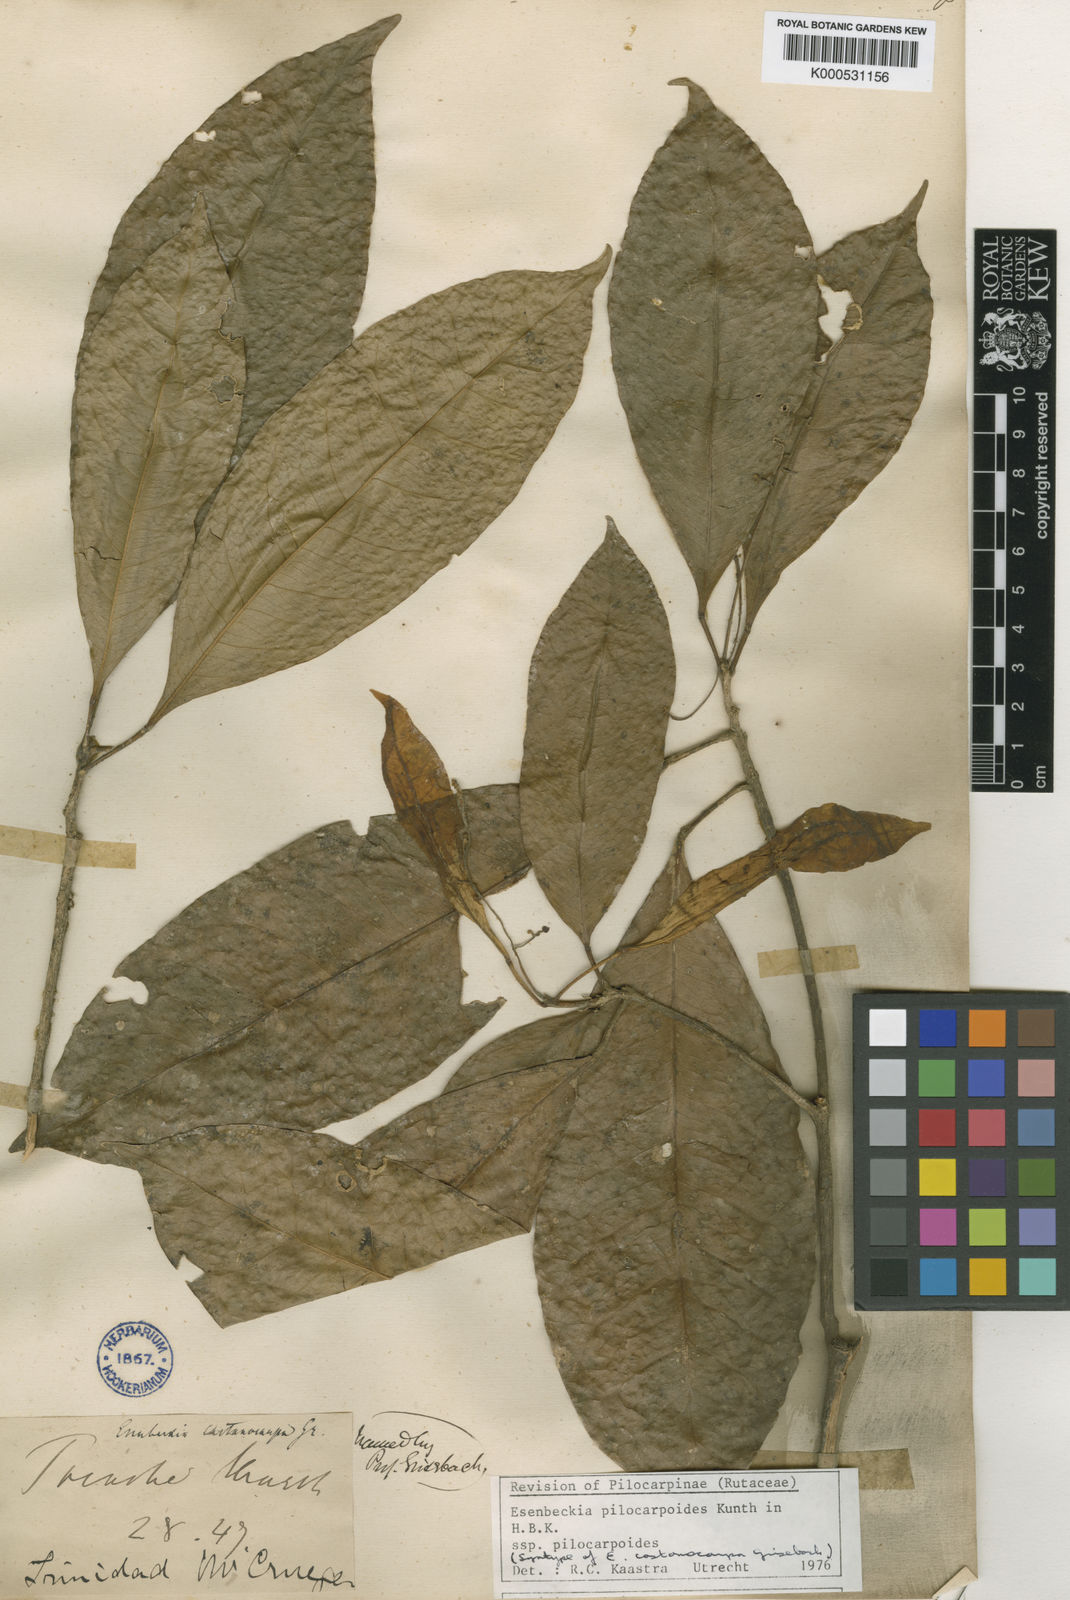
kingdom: Plantae
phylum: Tracheophyta
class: Magnoliopsida
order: Sapindales
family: Rutaceae
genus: Esenbeckia
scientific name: Esenbeckia pilocarpoides
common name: Pilosefruit esenbeckia
